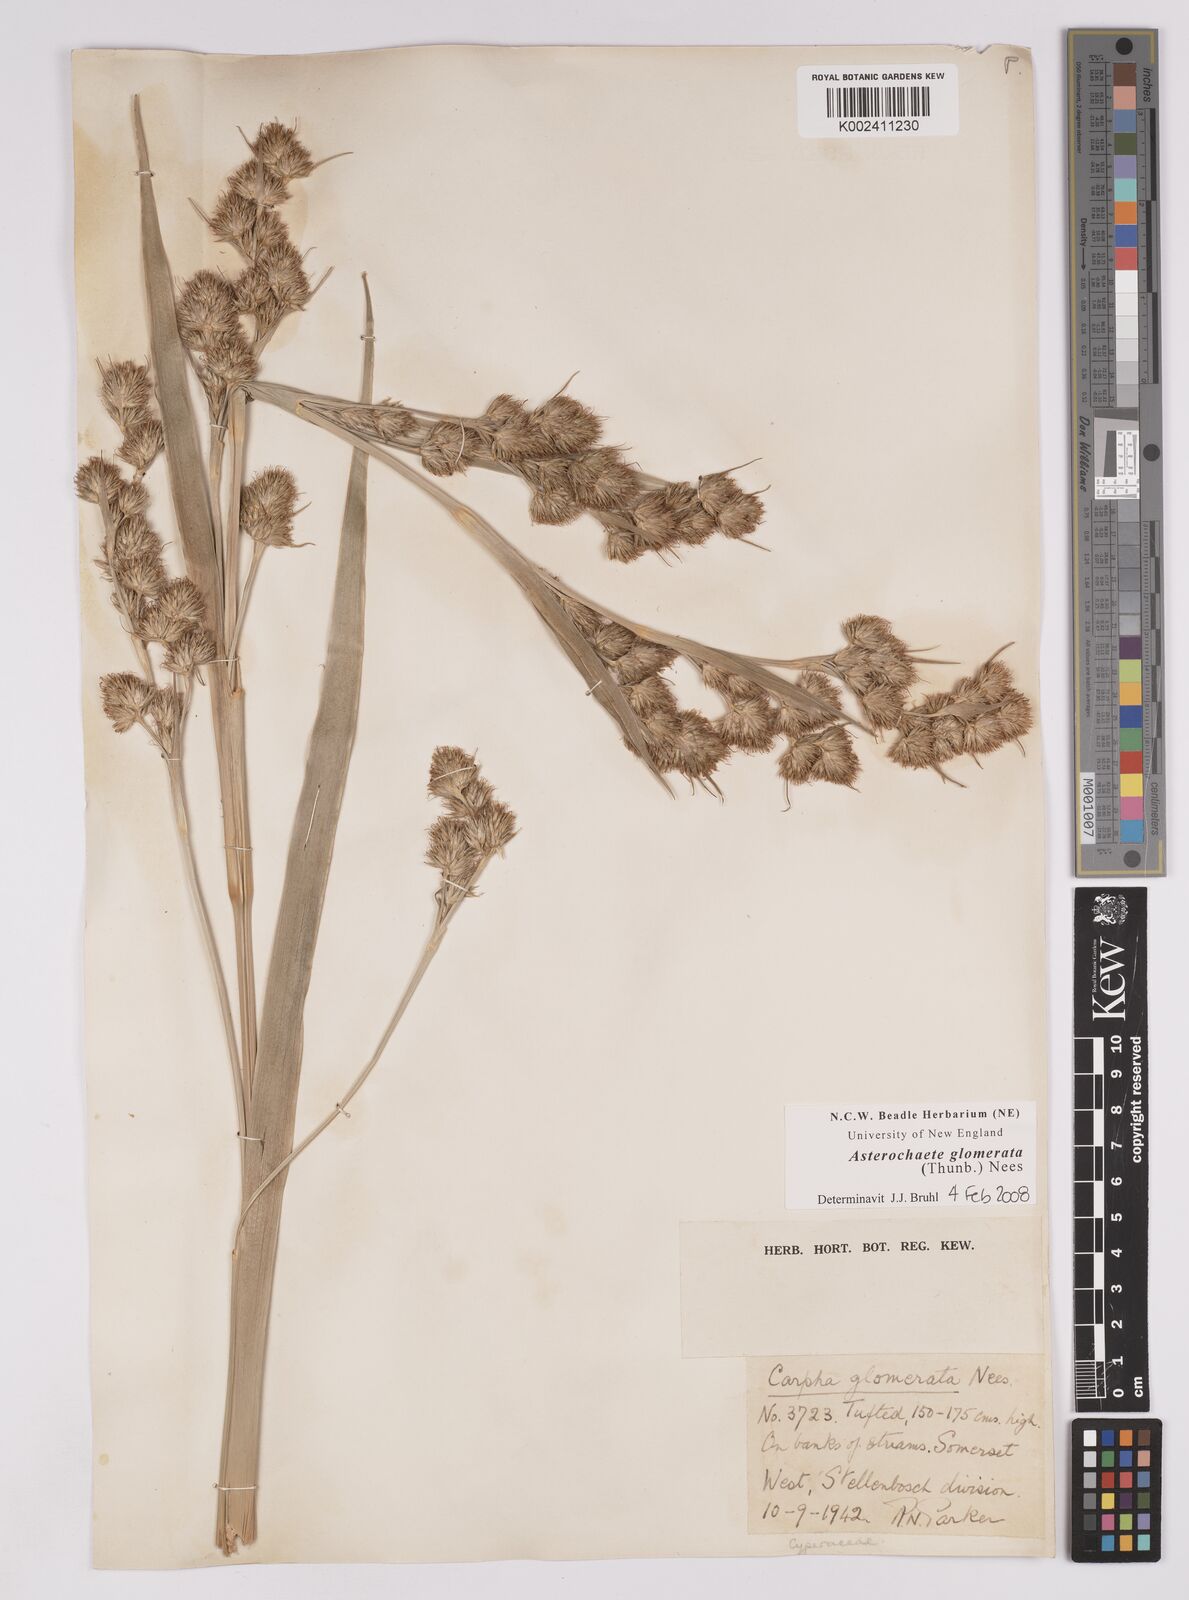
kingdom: Plantae
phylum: Tracheophyta
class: Liliopsida
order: Poales
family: Cyperaceae
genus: Carpha
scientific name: Carpha glomerata
